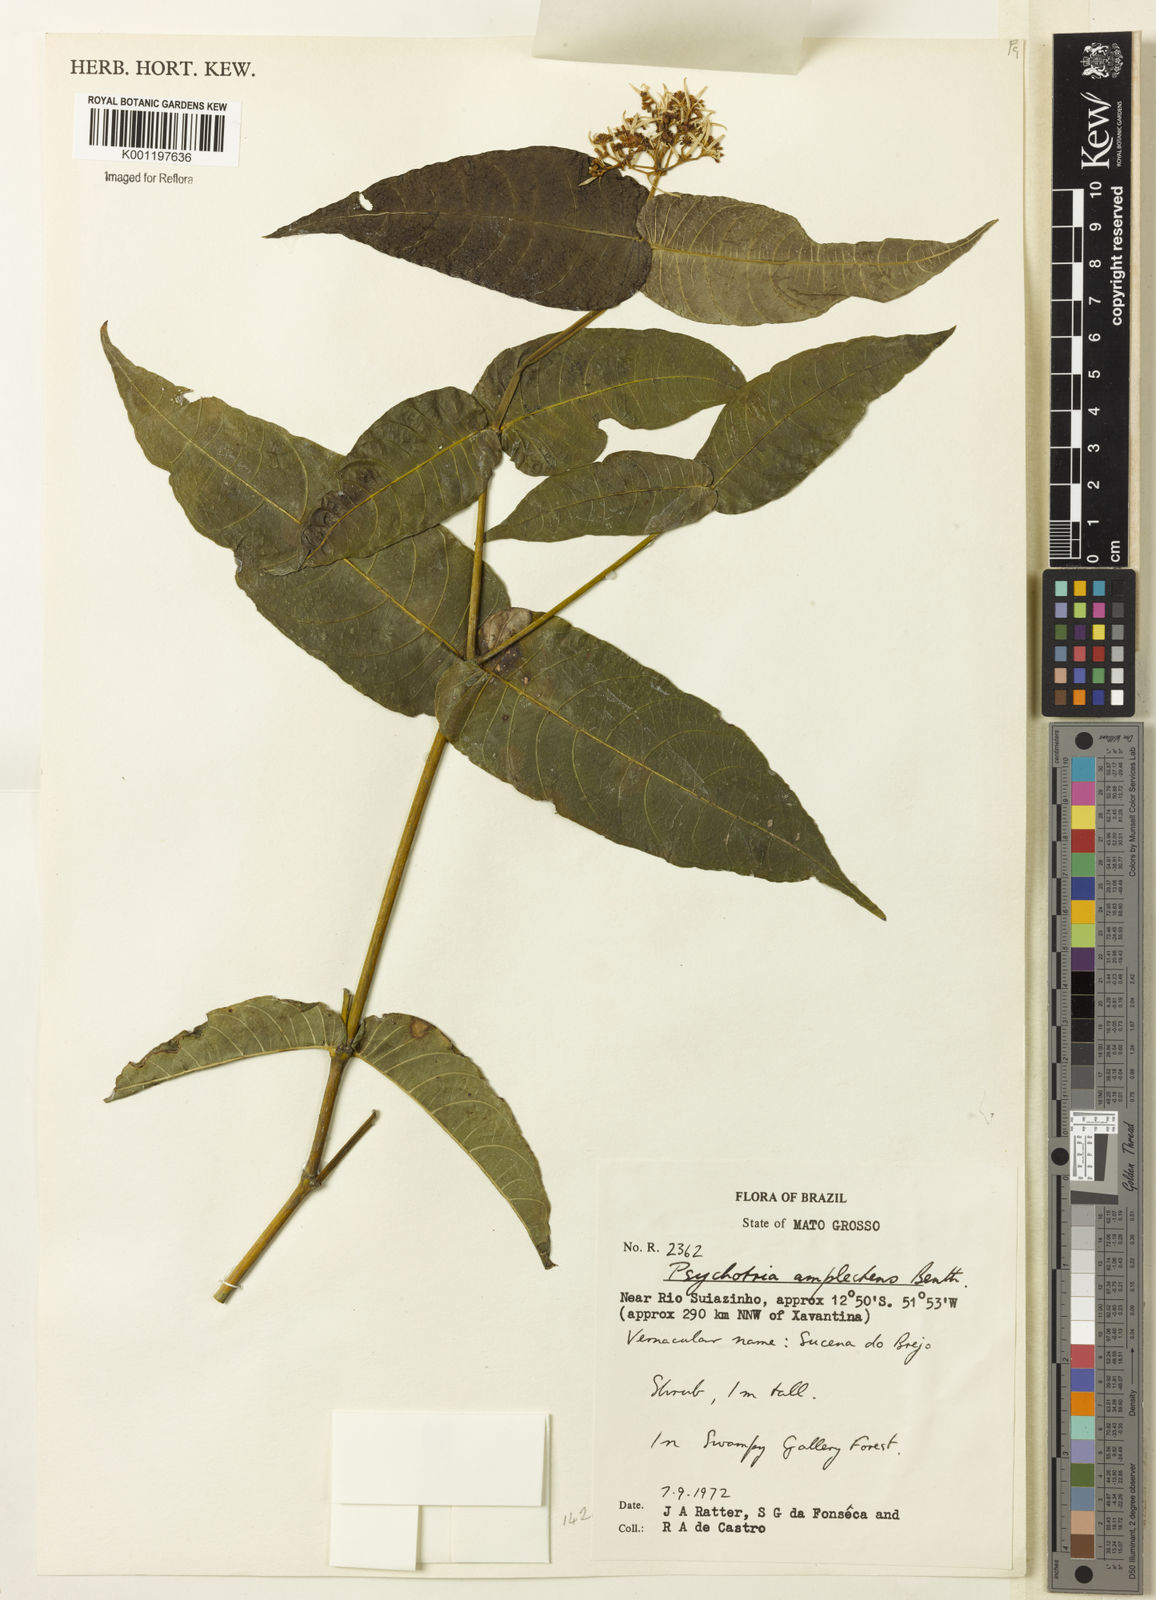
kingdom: Plantae
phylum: Tracheophyta
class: Magnoliopsida
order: Gentianales
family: Rubiaceae
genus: Psychotria
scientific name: Psychotria
